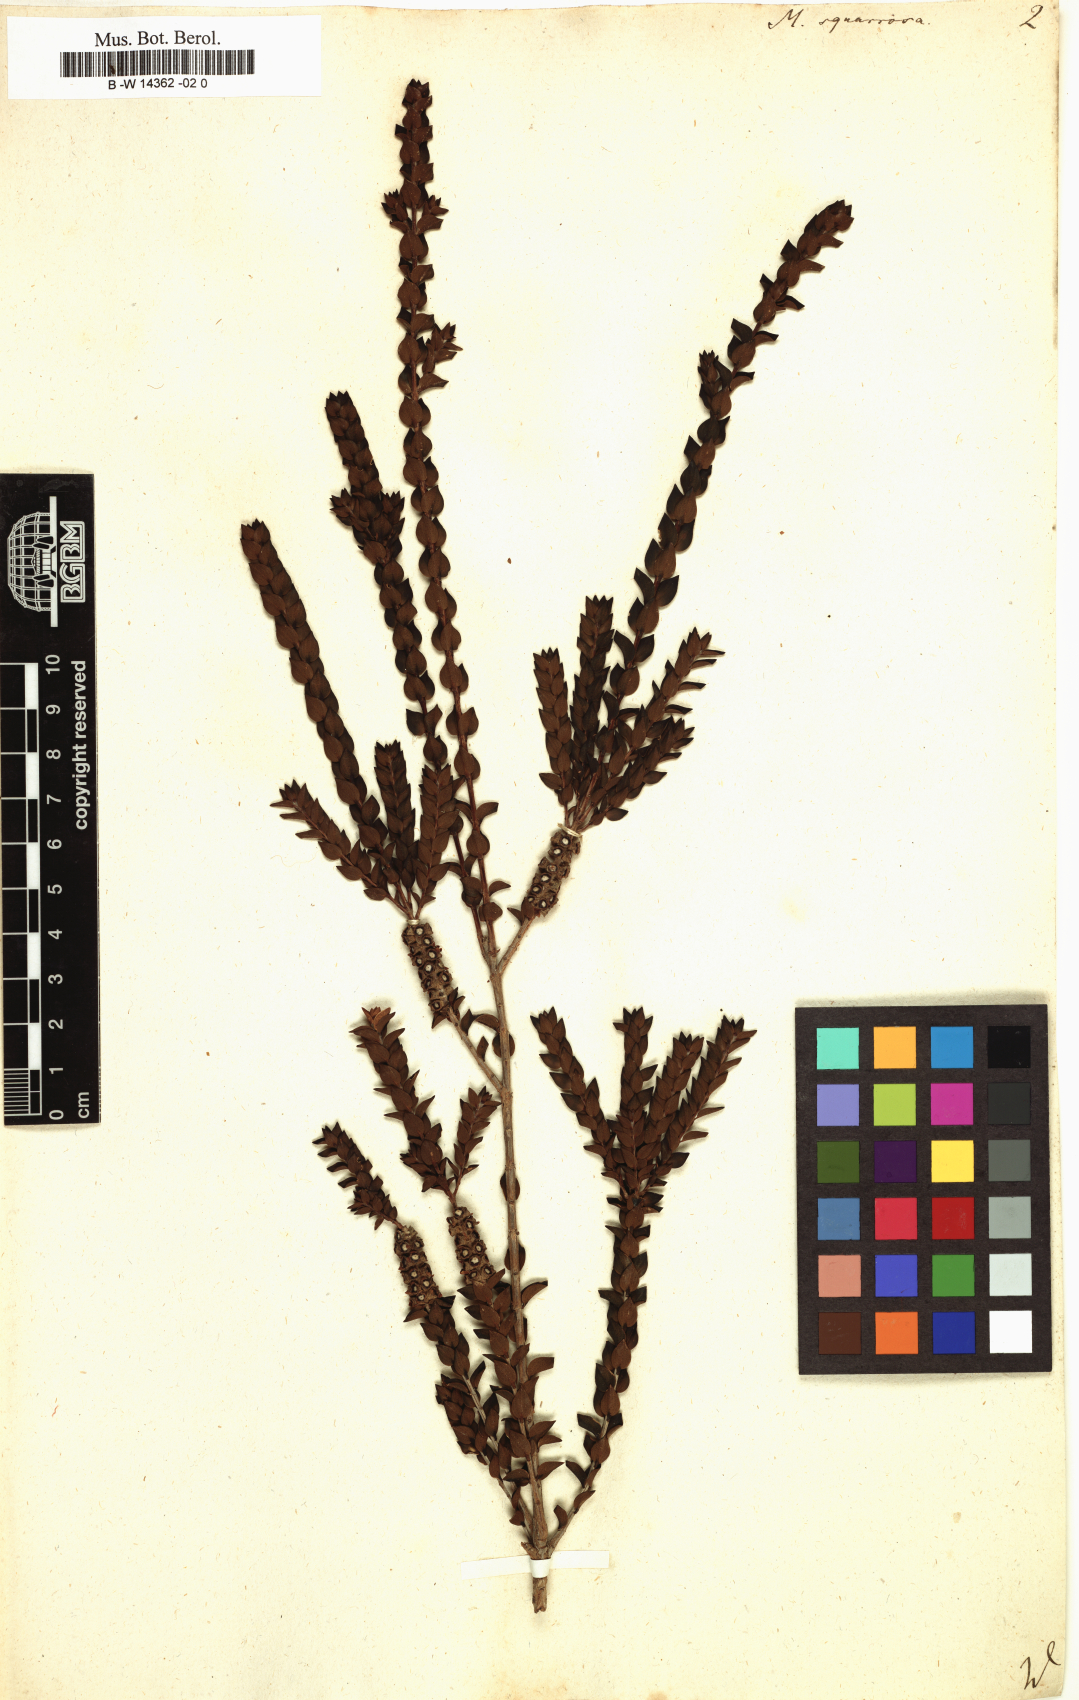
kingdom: Plantae
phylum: Tracheophyta
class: Magnoliopsida
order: Myrtales
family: Myrtaceae
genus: Melaleuca
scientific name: Melaleuca squarrosa
